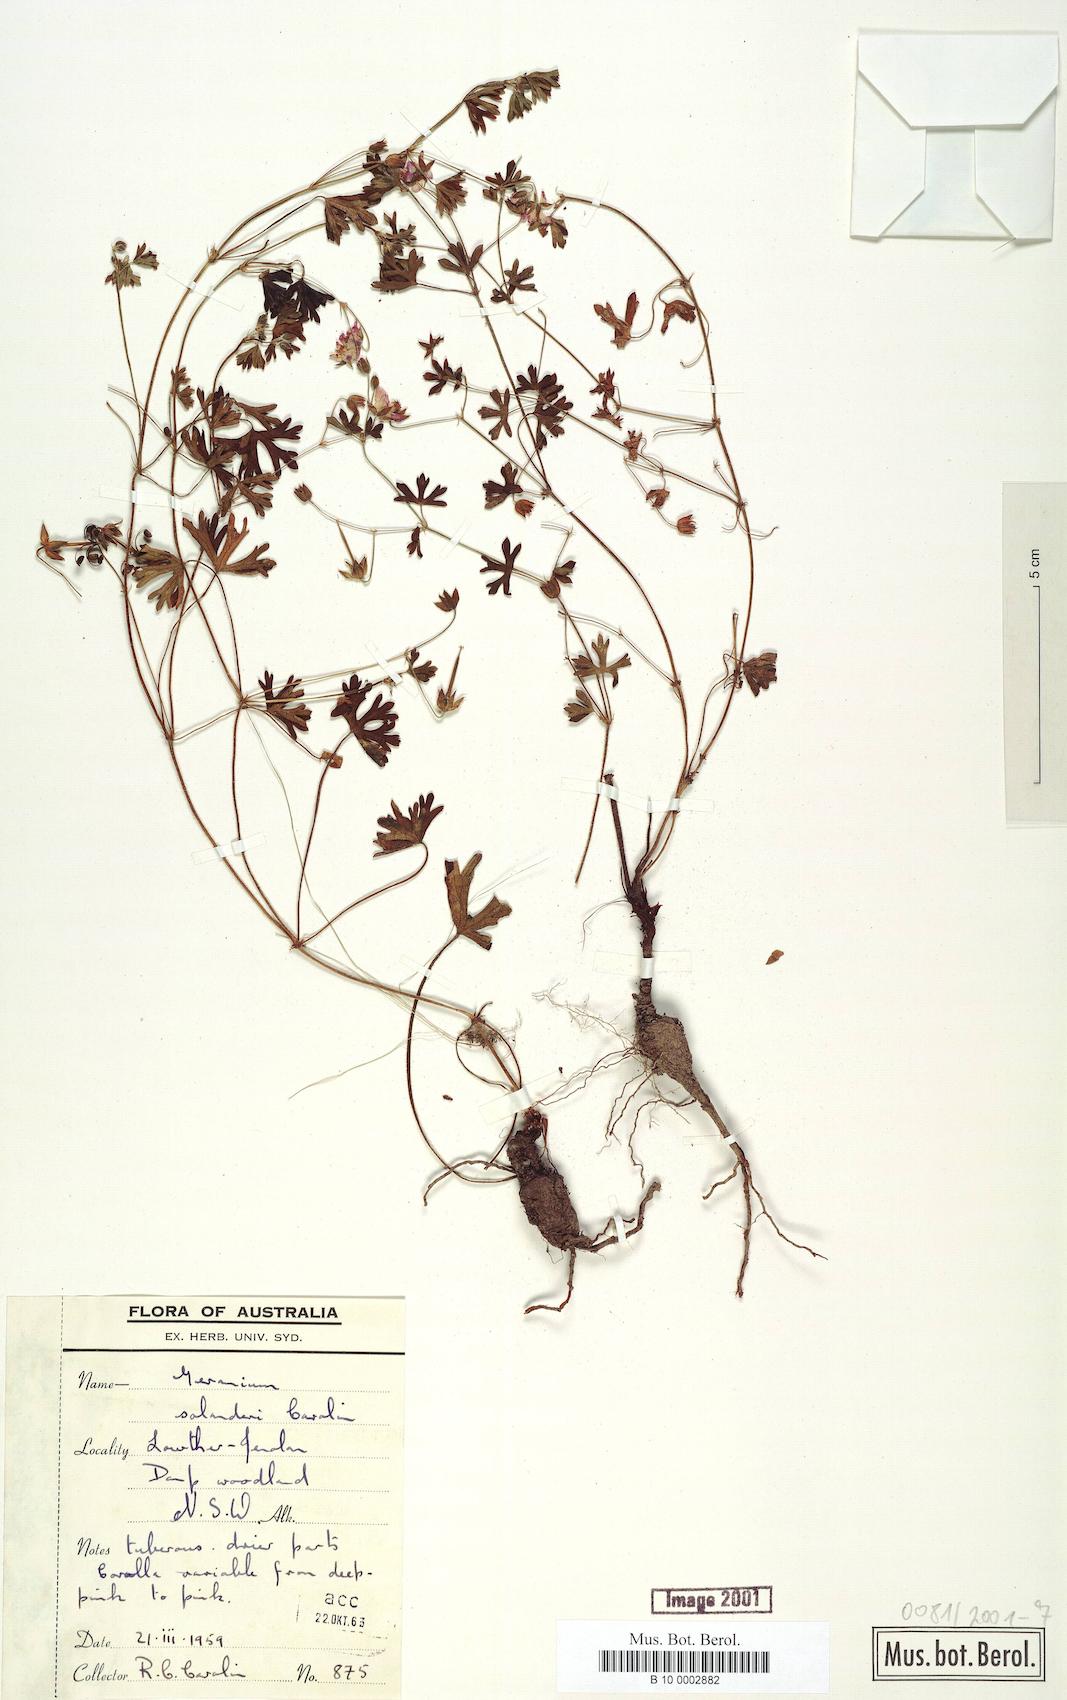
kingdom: Plantae
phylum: Tracheophyta
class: Magnoliopsida
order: Geraniales
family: Geraniaceae
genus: Geranium
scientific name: Geranium solanderi
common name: Solander's geranium
